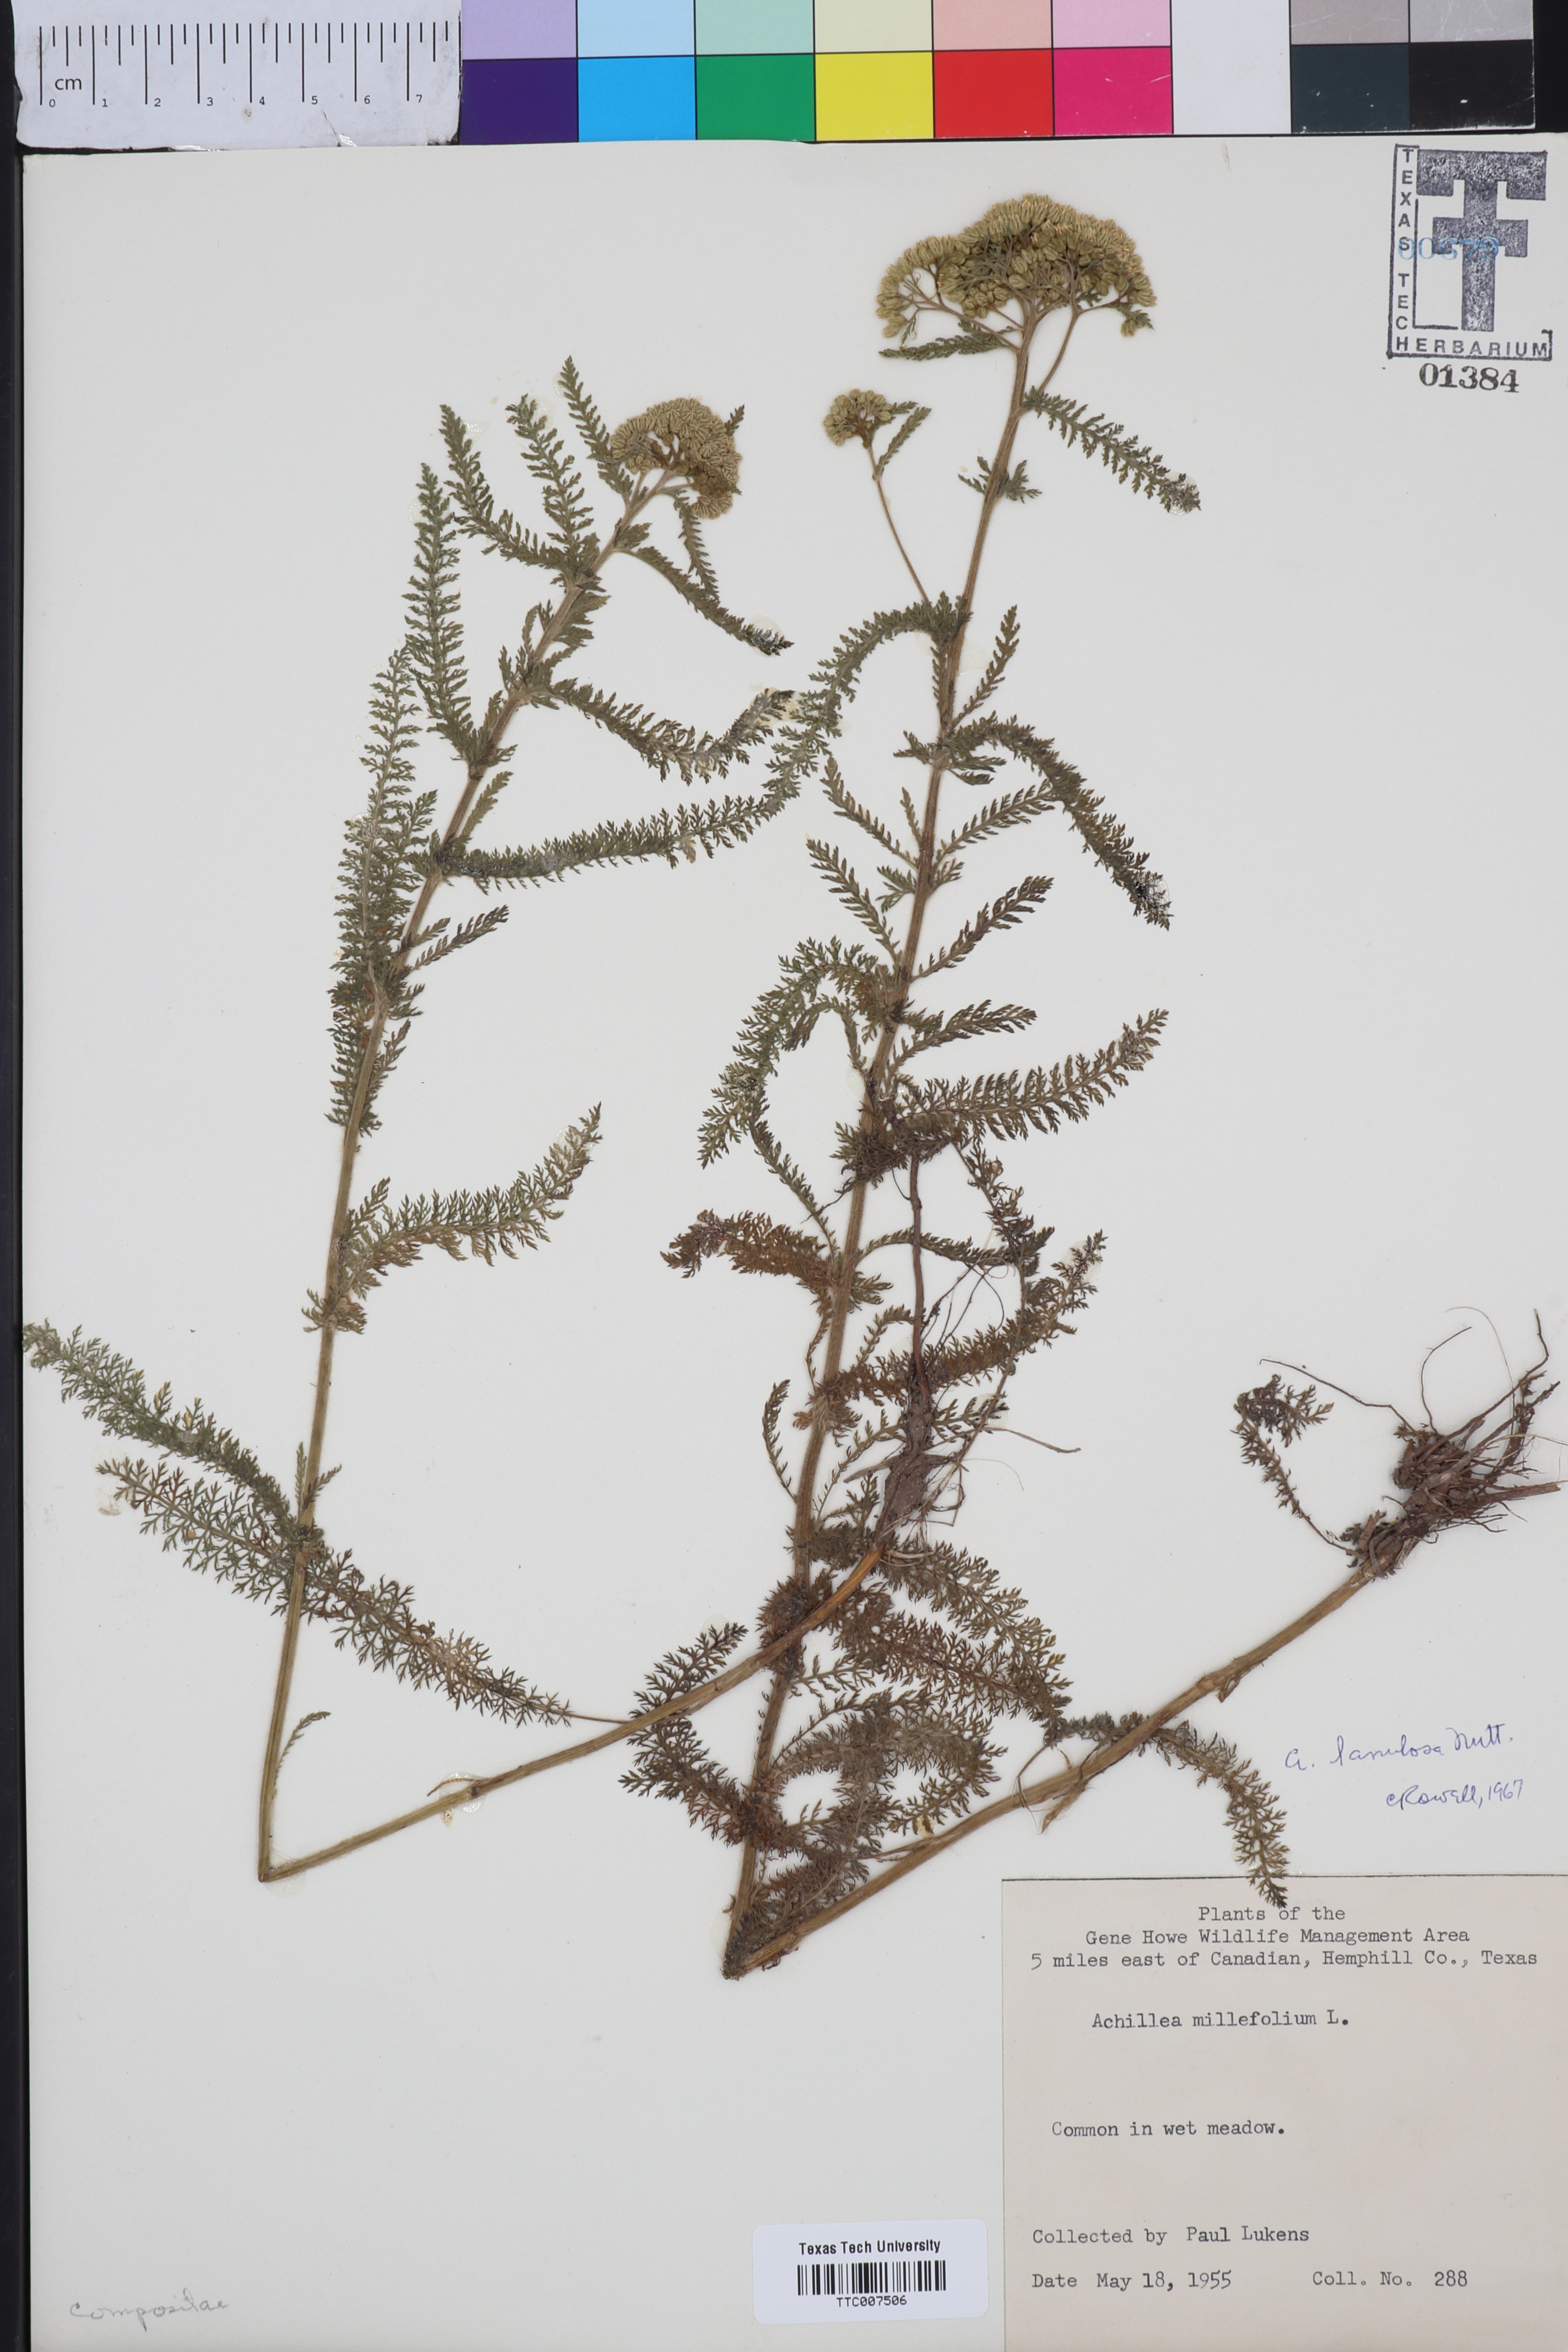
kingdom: Plantae
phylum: Tracheophyta
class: Magnoliopsida
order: Asterales
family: Asteraceae
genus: Achillea
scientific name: Achillea millefolium
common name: Yarrow
